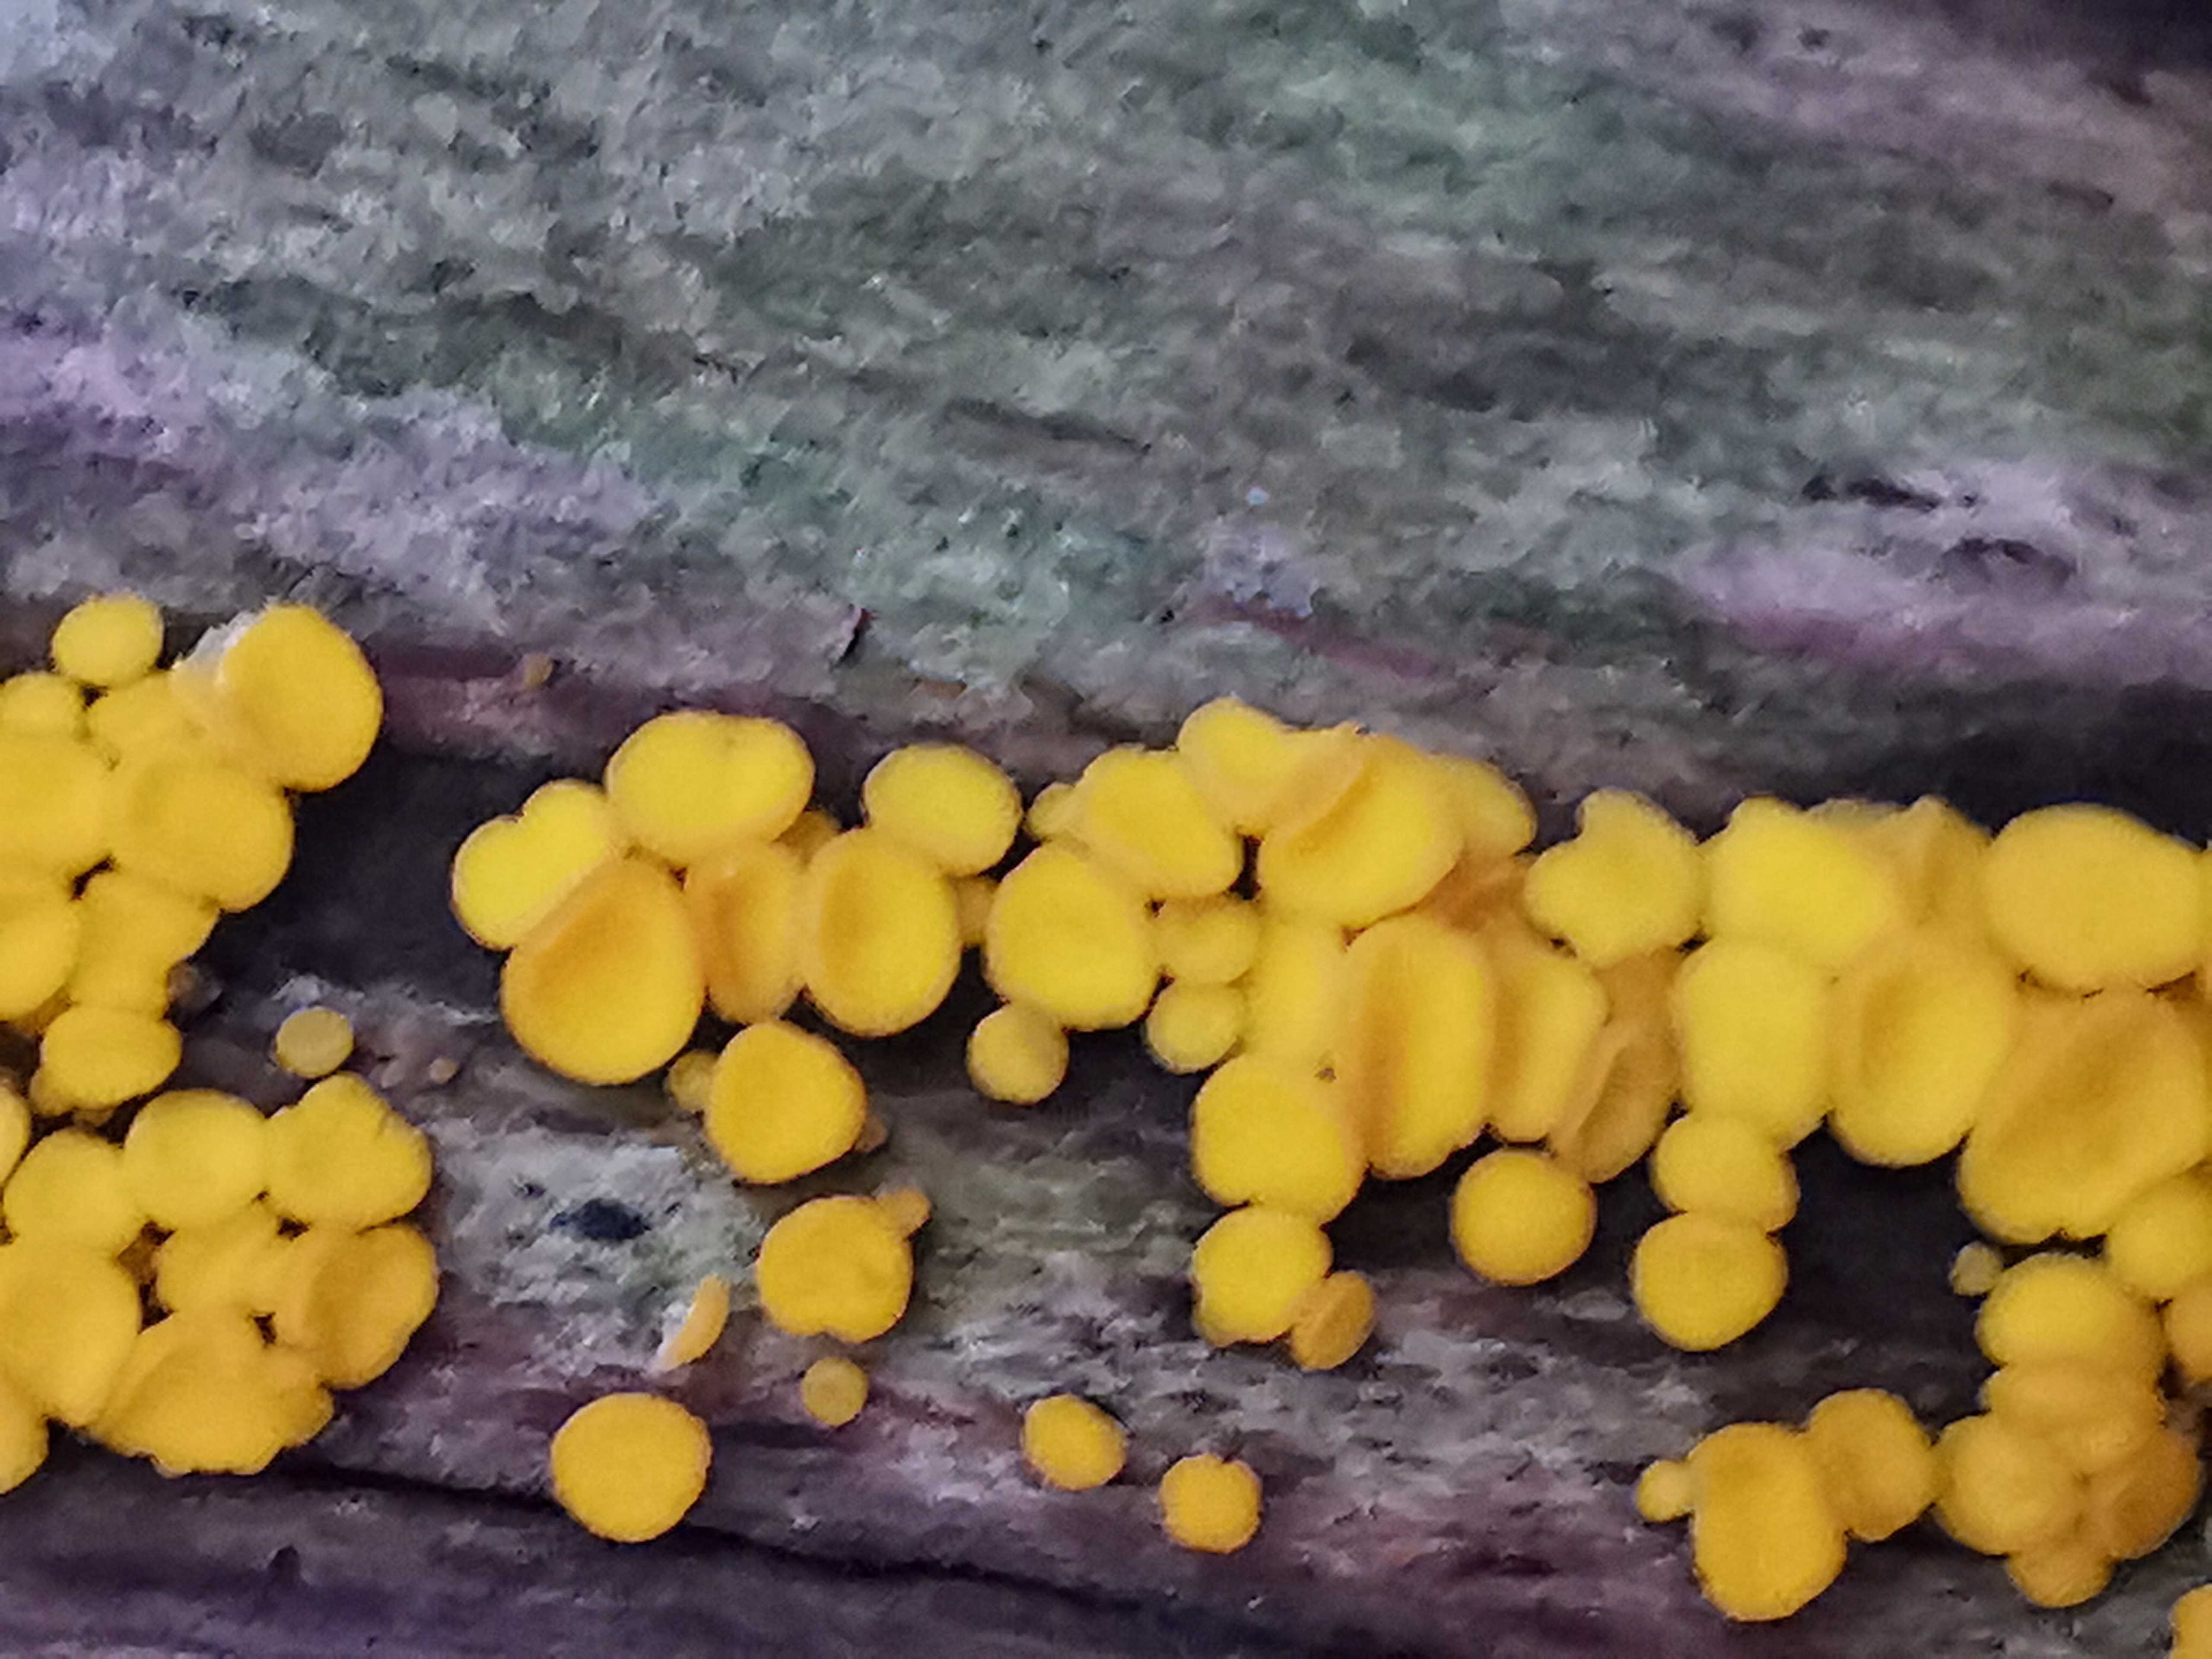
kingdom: Fungi
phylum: Ascomycota
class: Leotiomycetes
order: Helotiales
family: Pezizellaceae
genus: Calycina
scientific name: Calycina citrina
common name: almindelig gulskive
